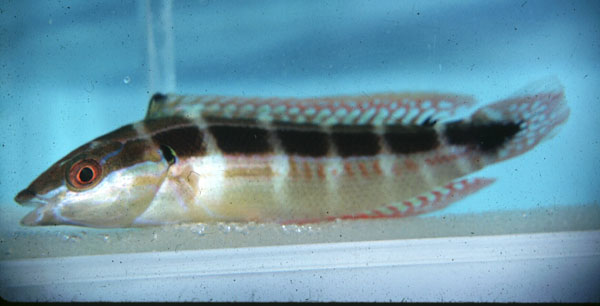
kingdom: Animalia
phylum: Chordata
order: Perciformes
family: Labridae
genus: Coris
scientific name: Coris caudimacula
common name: Spottail coris
